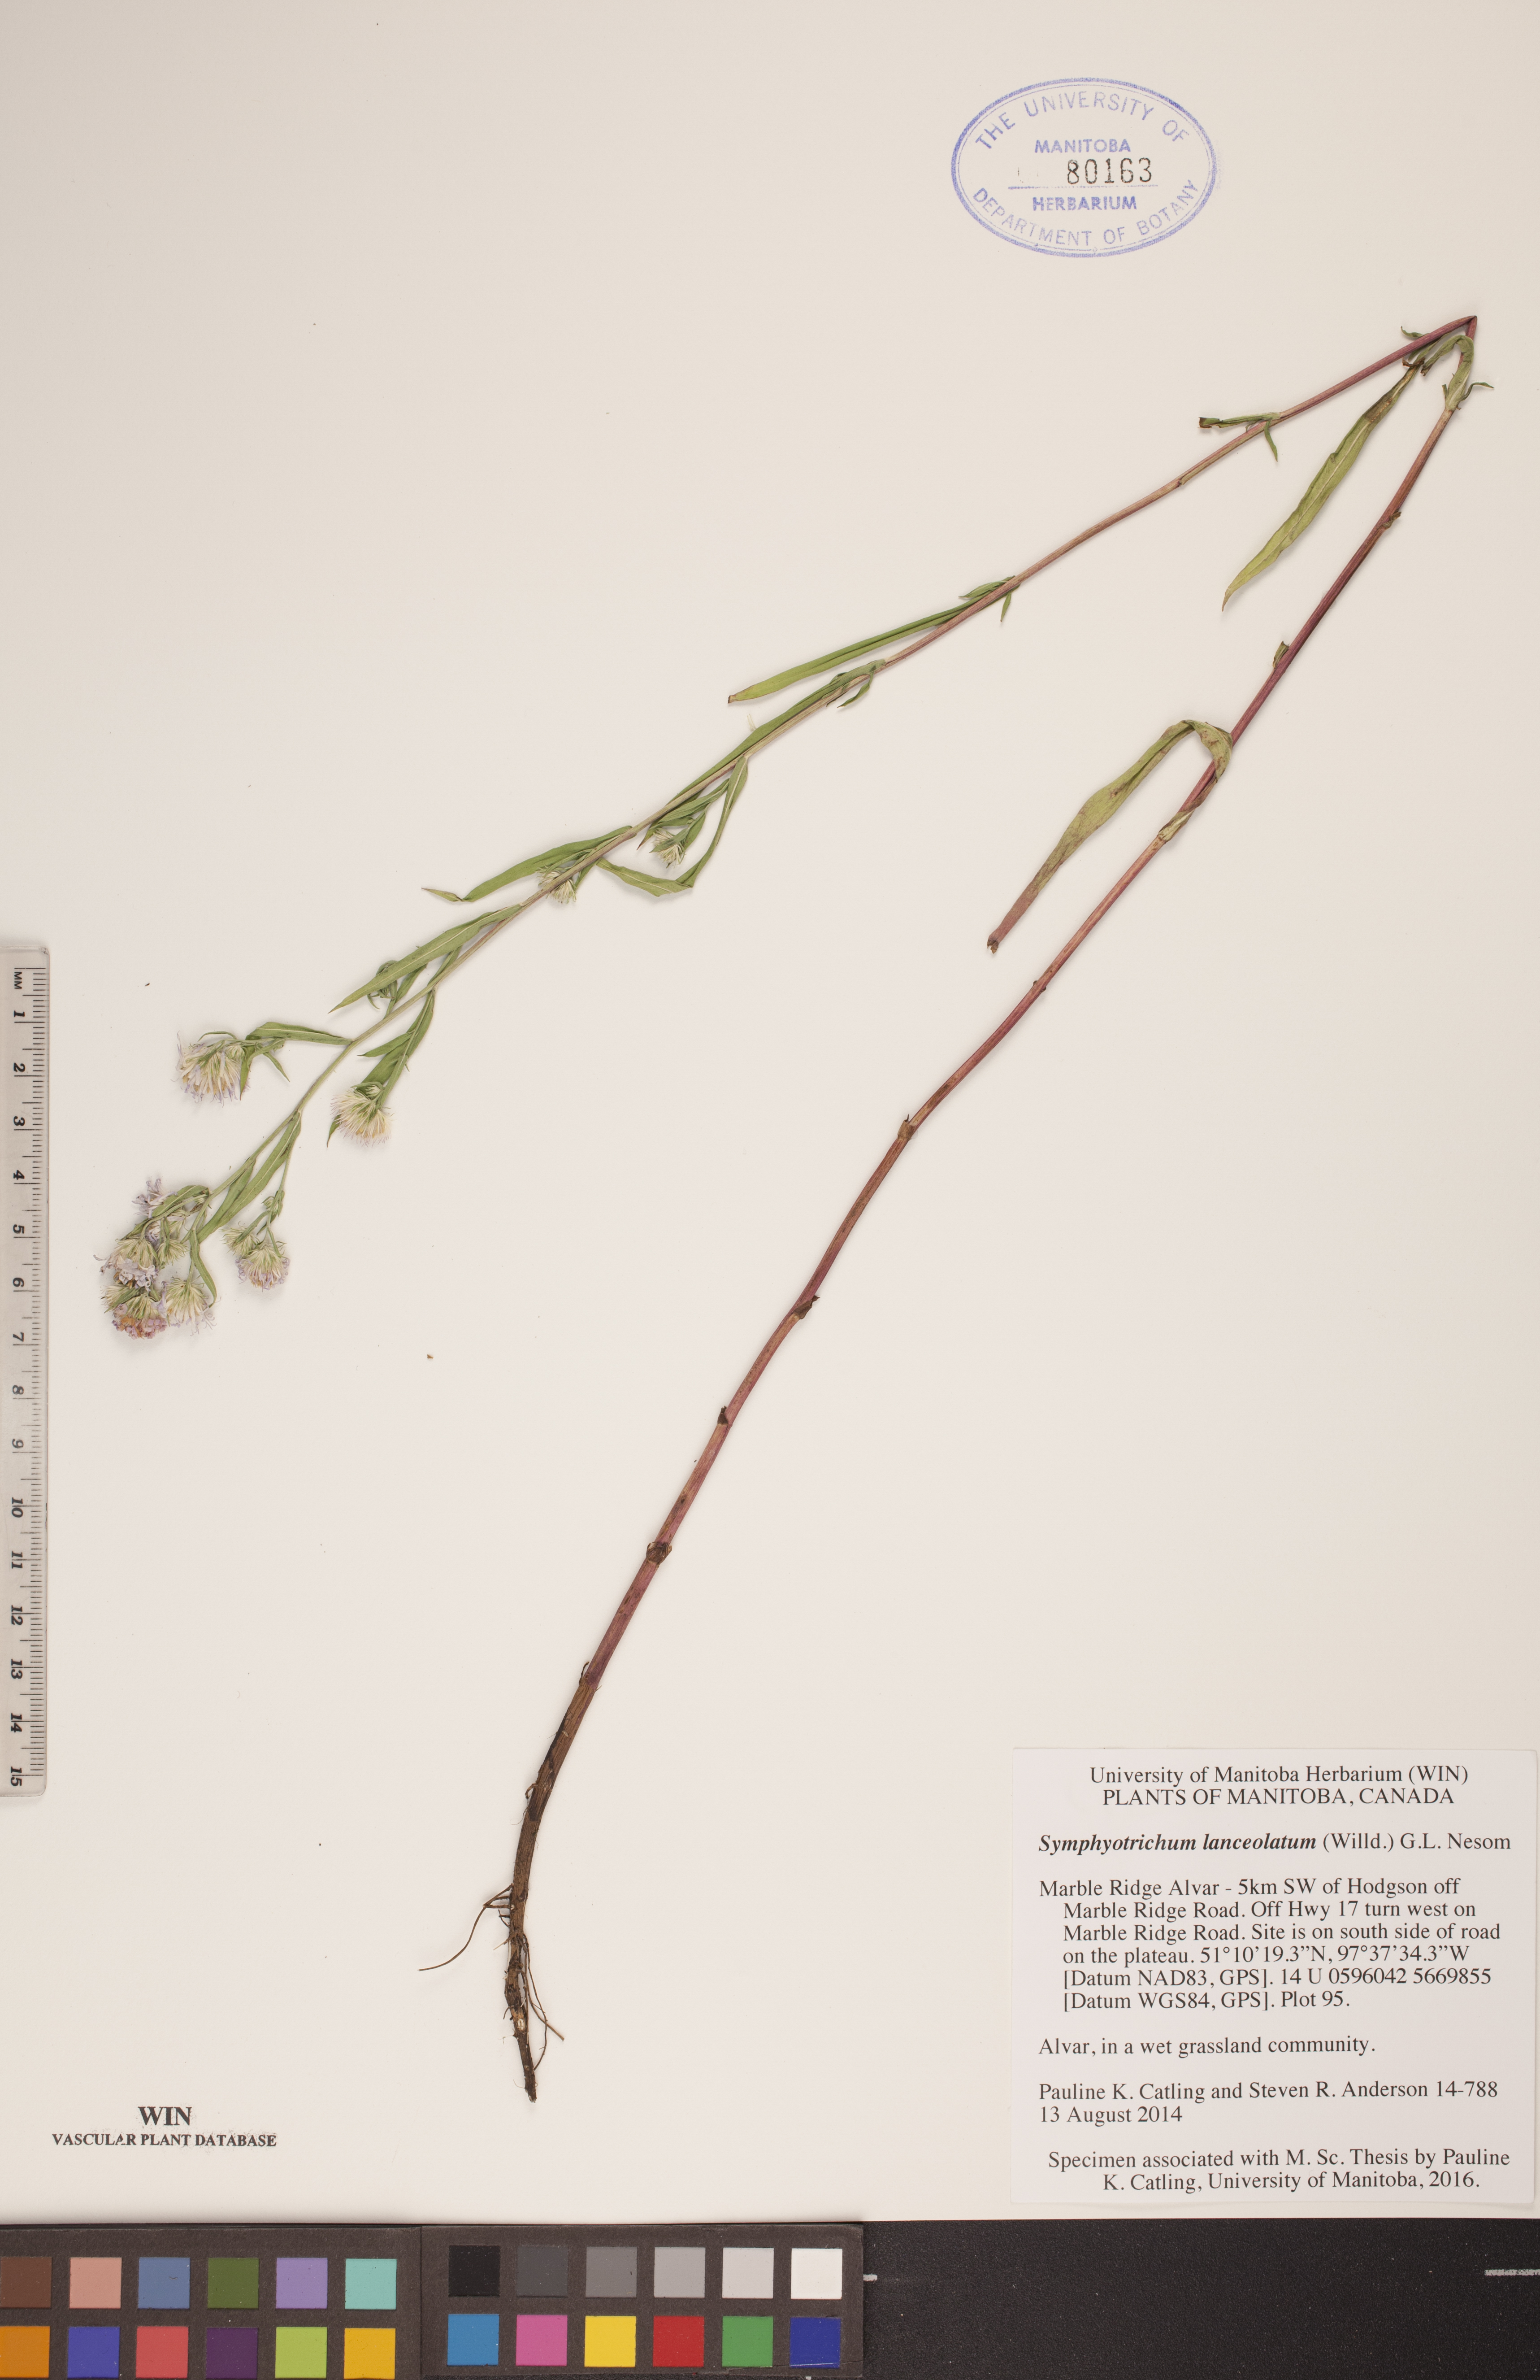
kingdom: Plantae
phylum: Tracheophyta
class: Magnoliopsida
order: Asterales
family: Asteraceae
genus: Symphyotrichum
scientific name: Symphyotrichum lanceolatum
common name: Panicled aster
